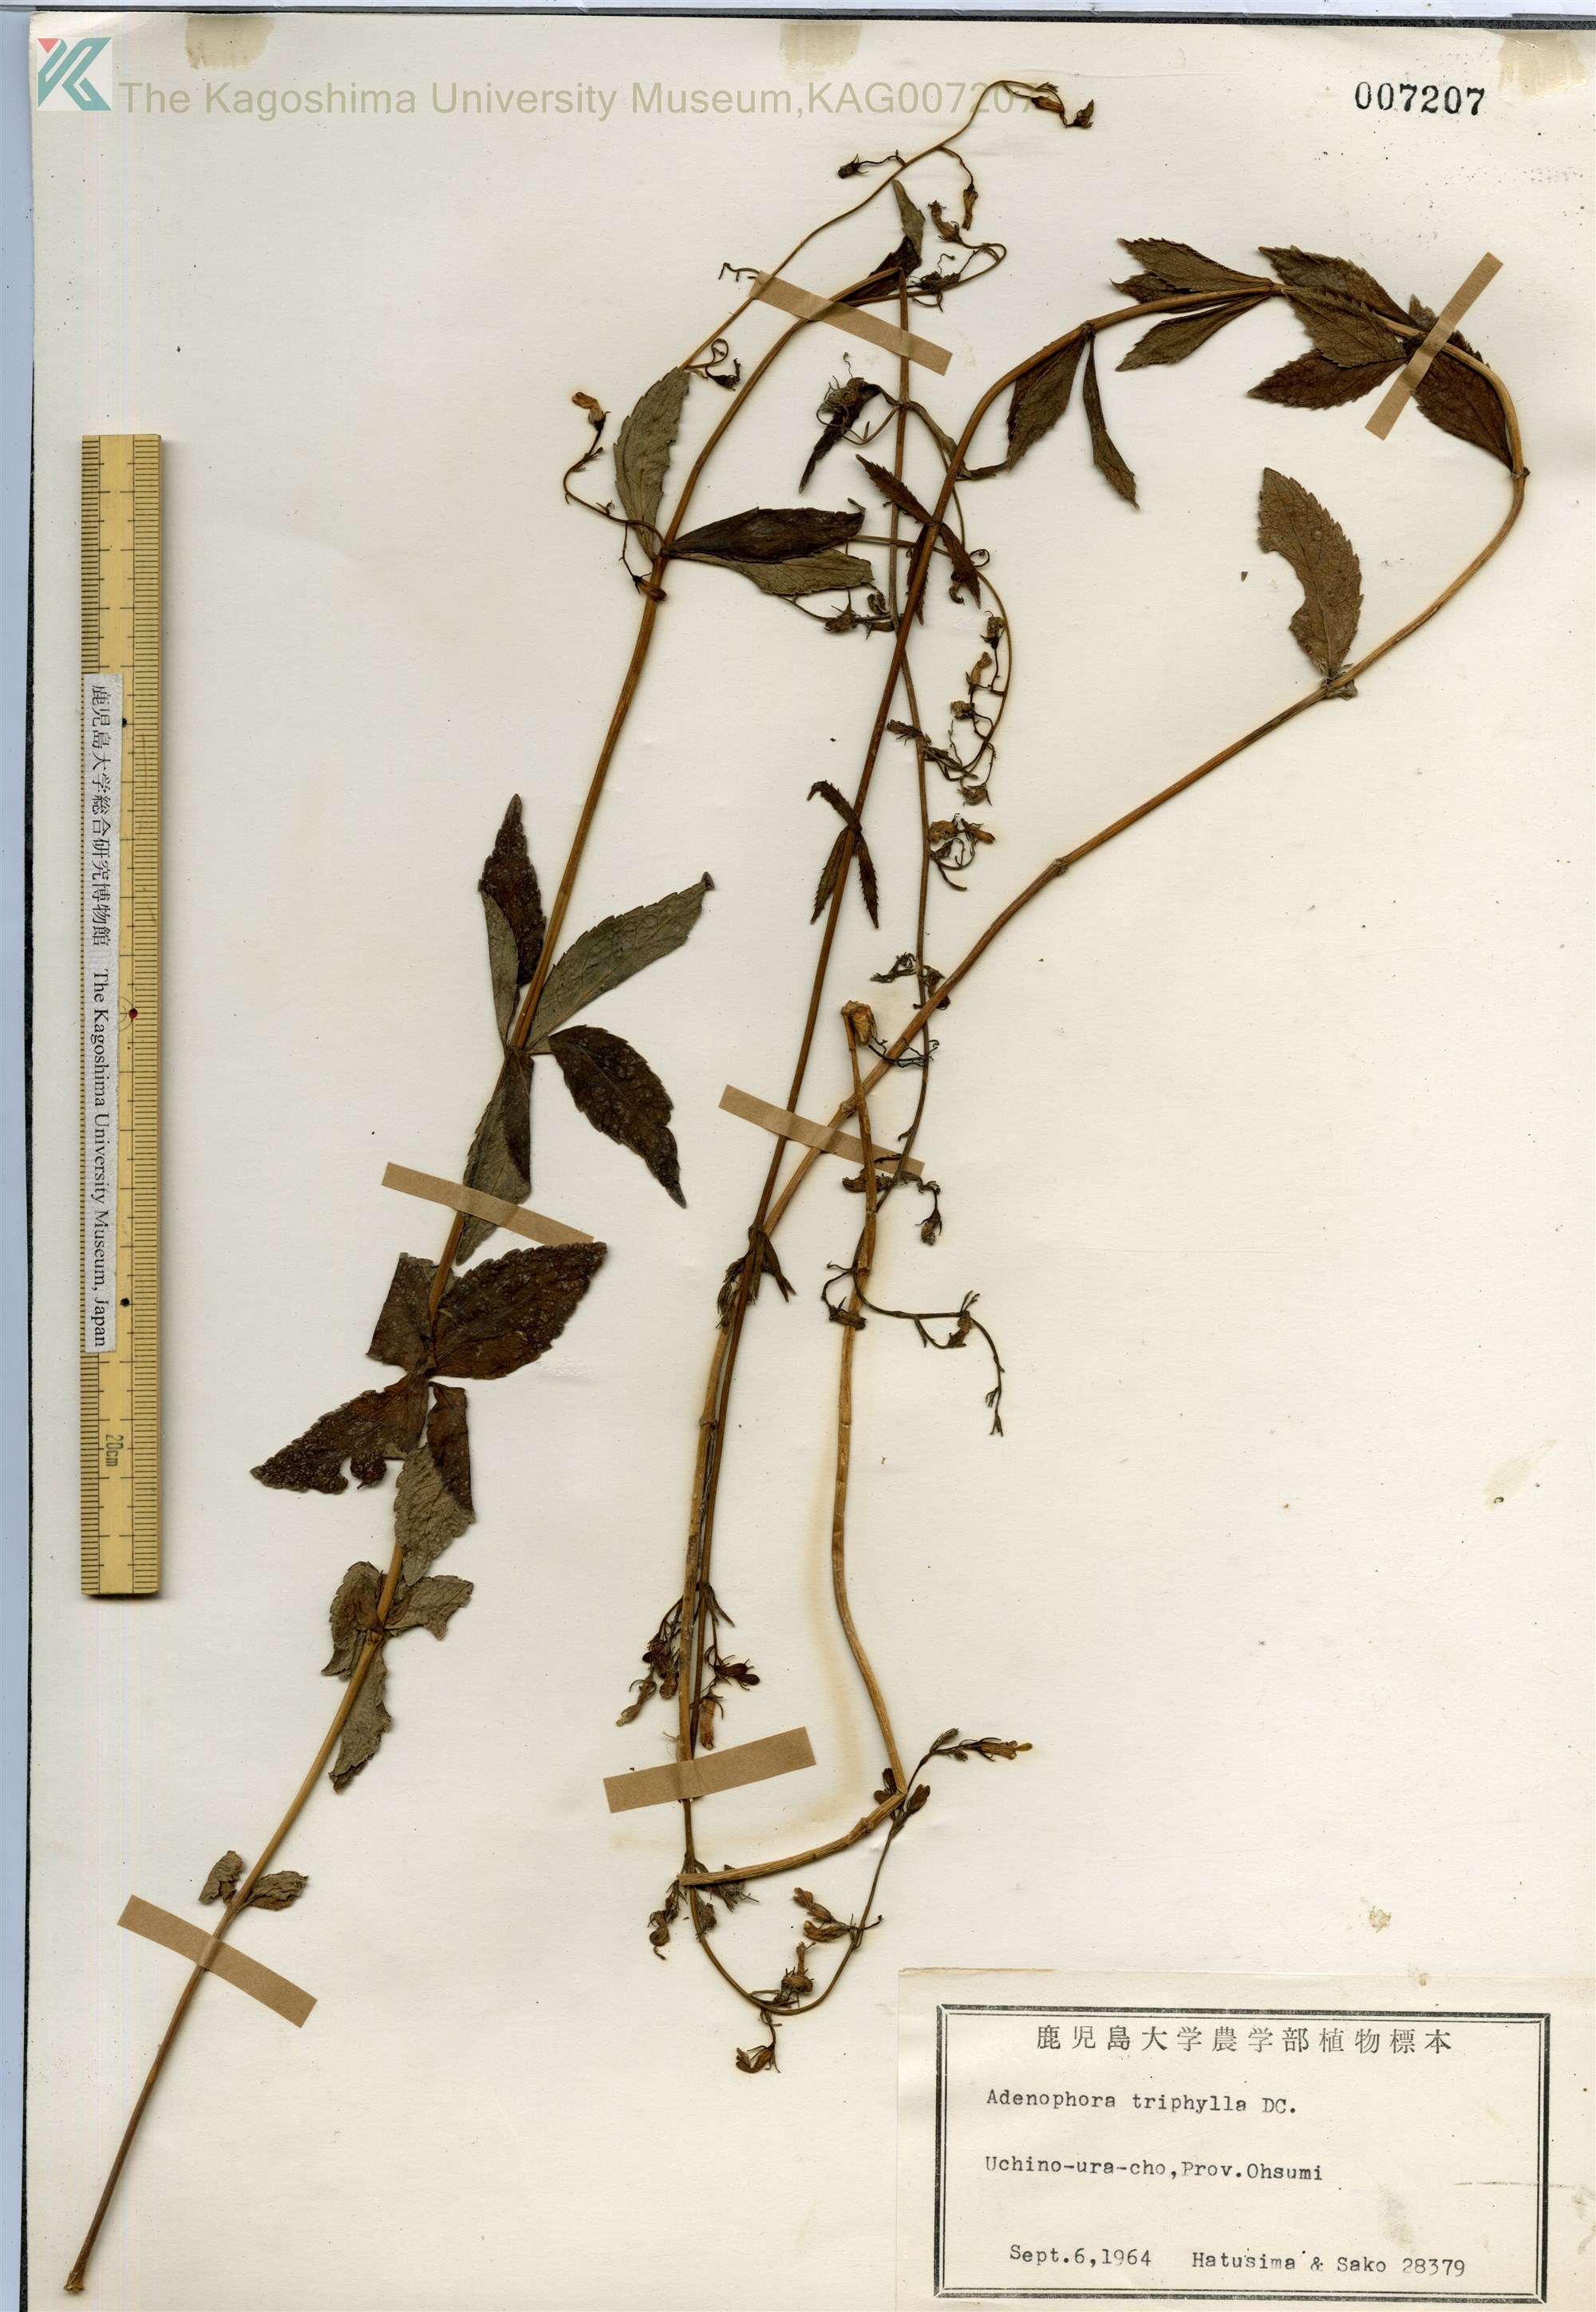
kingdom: Plantae
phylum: Tracheophyta
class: Magnoliopsida
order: Asterales
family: Campanulaceae
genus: Adenophora
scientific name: Adenophora triphylla
